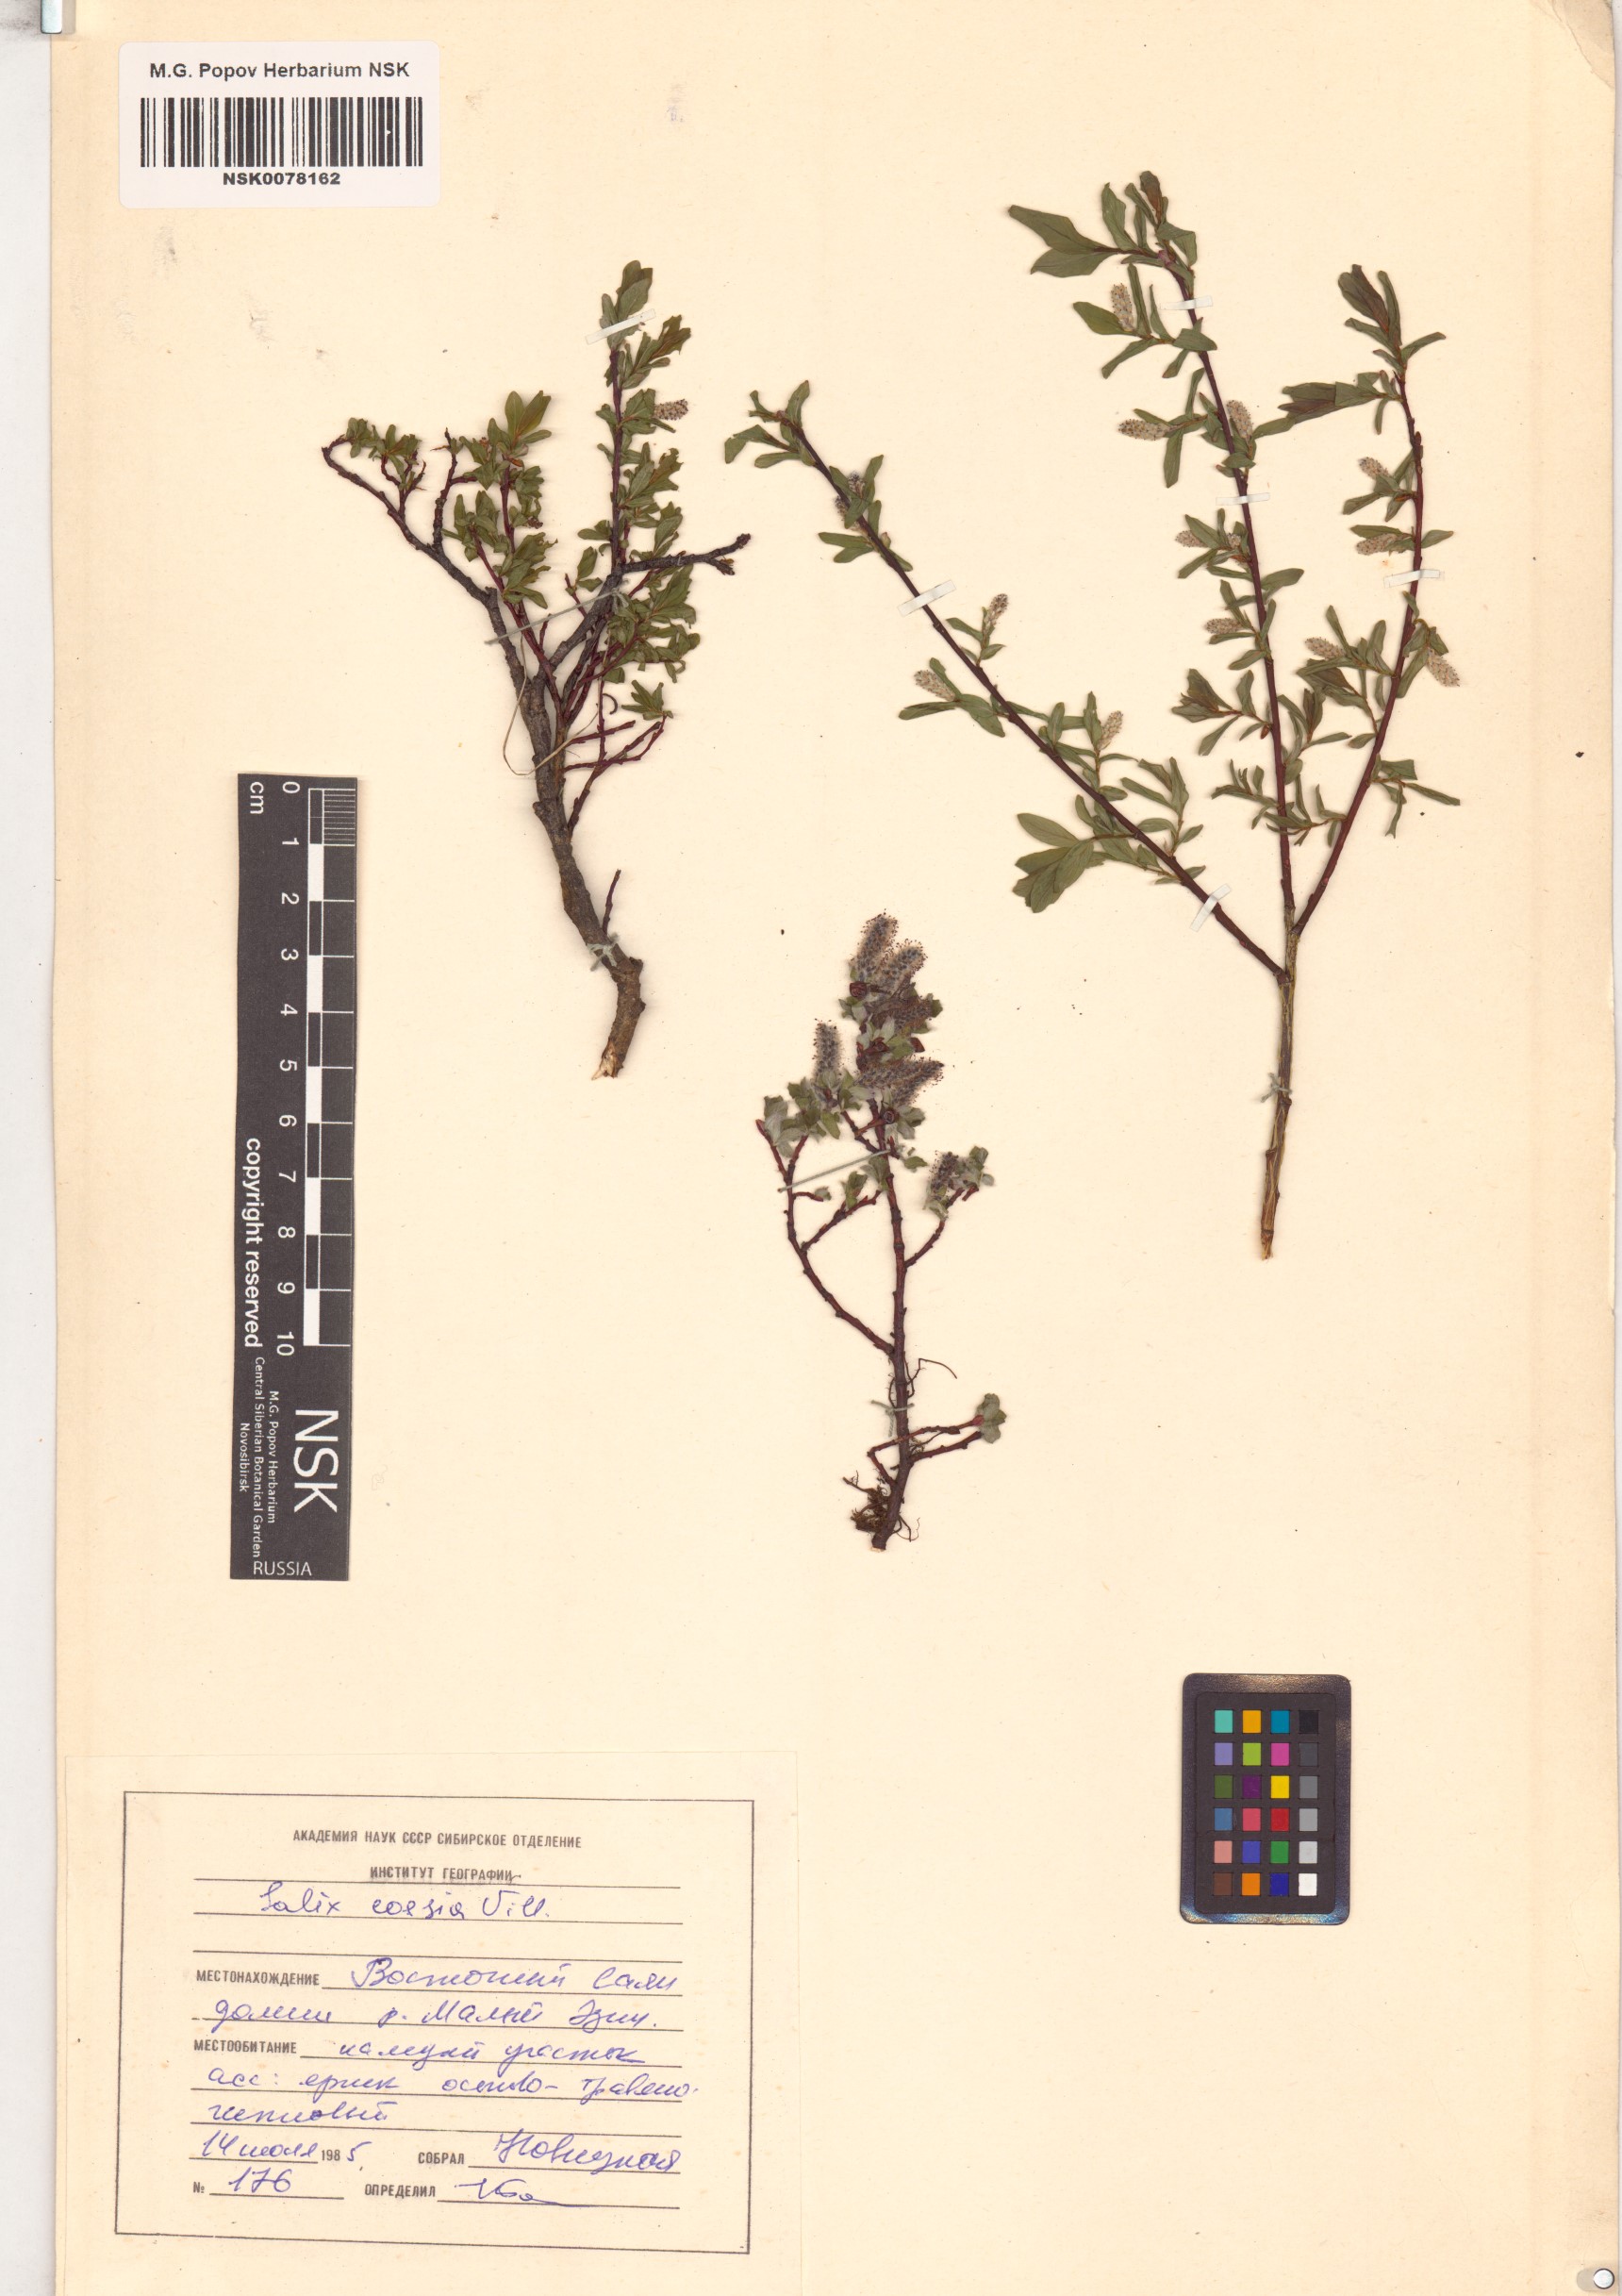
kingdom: Plantae
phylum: Tracheophyta
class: Magnoliopsida
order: Malpighiales
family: Salicaceae
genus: Salix
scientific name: Salix caesia
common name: Blue willow
